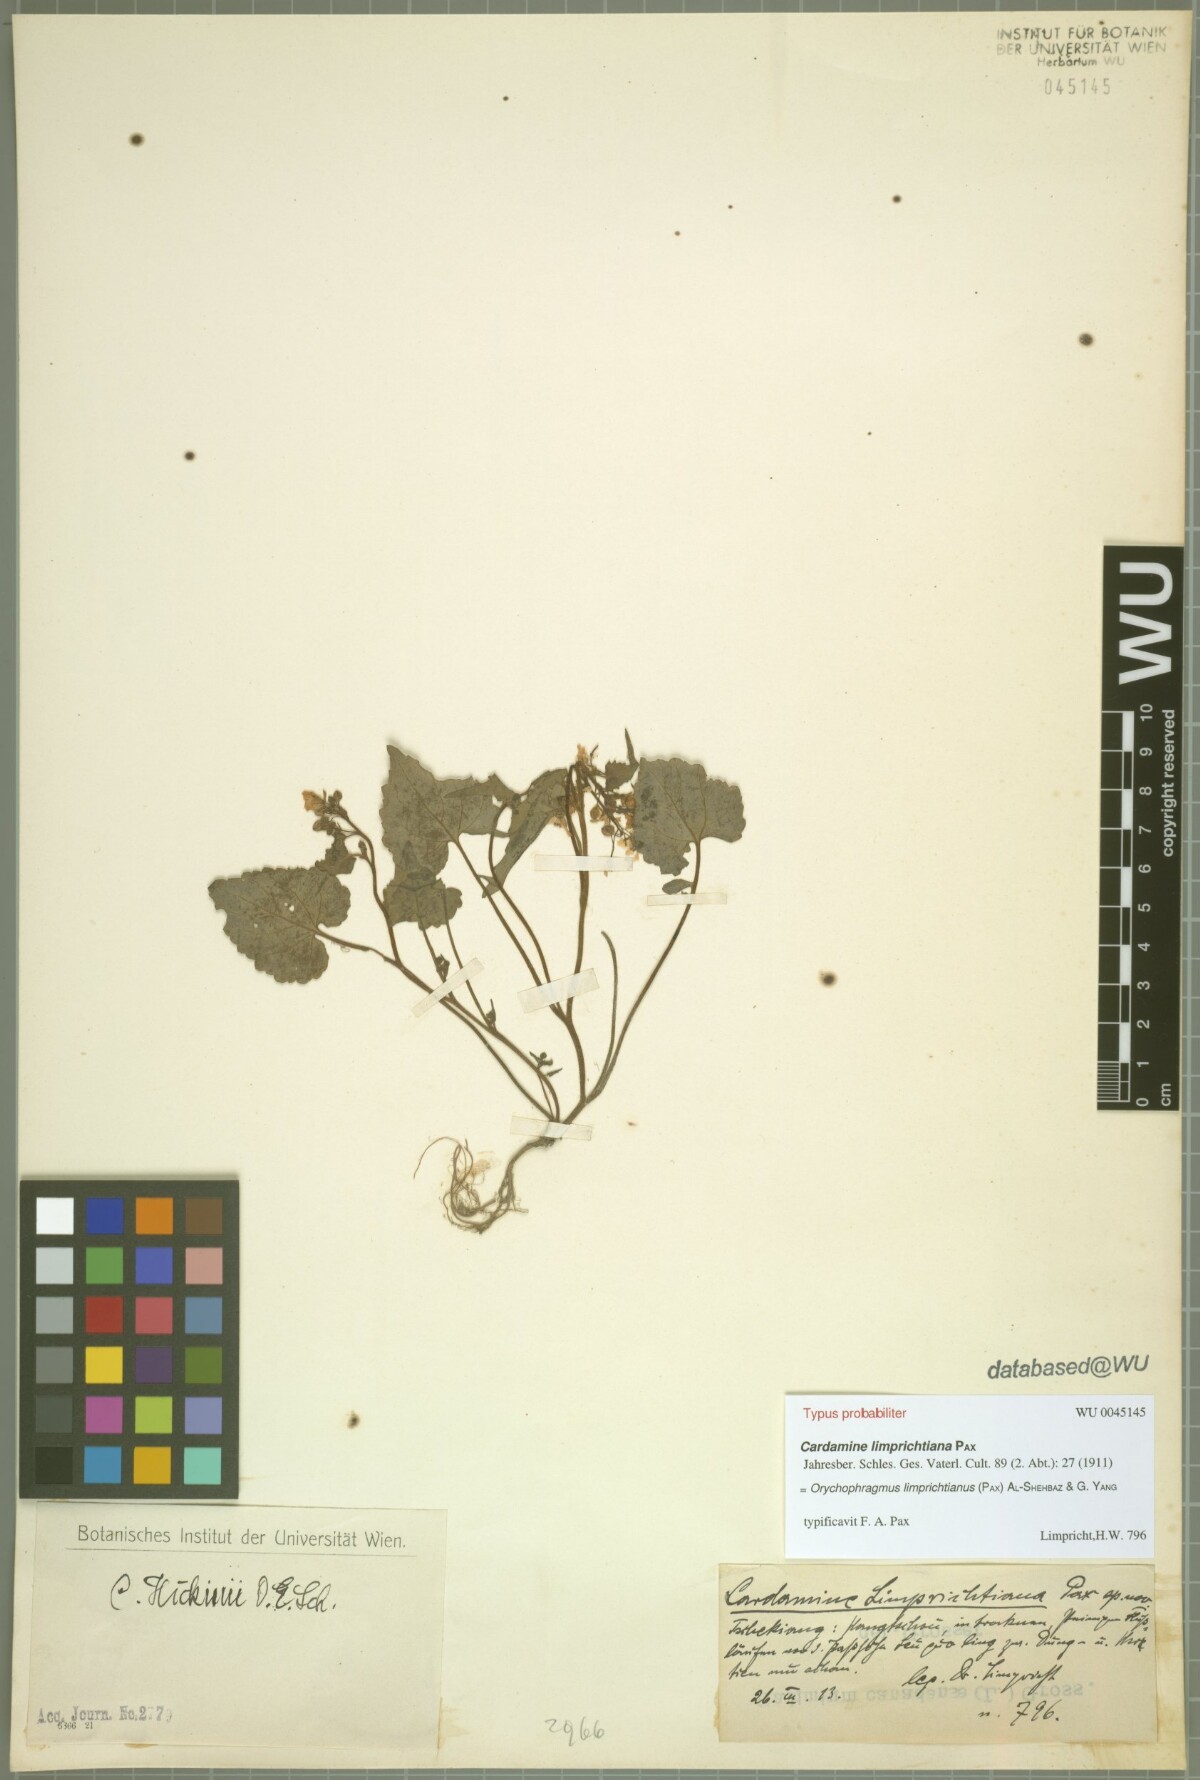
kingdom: Plantae
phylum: Tracheophyta
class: Magnoliopsida
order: Brassicales
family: Brassicaceae
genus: Sinalliaria
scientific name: Sinalliaria limprichtiana
